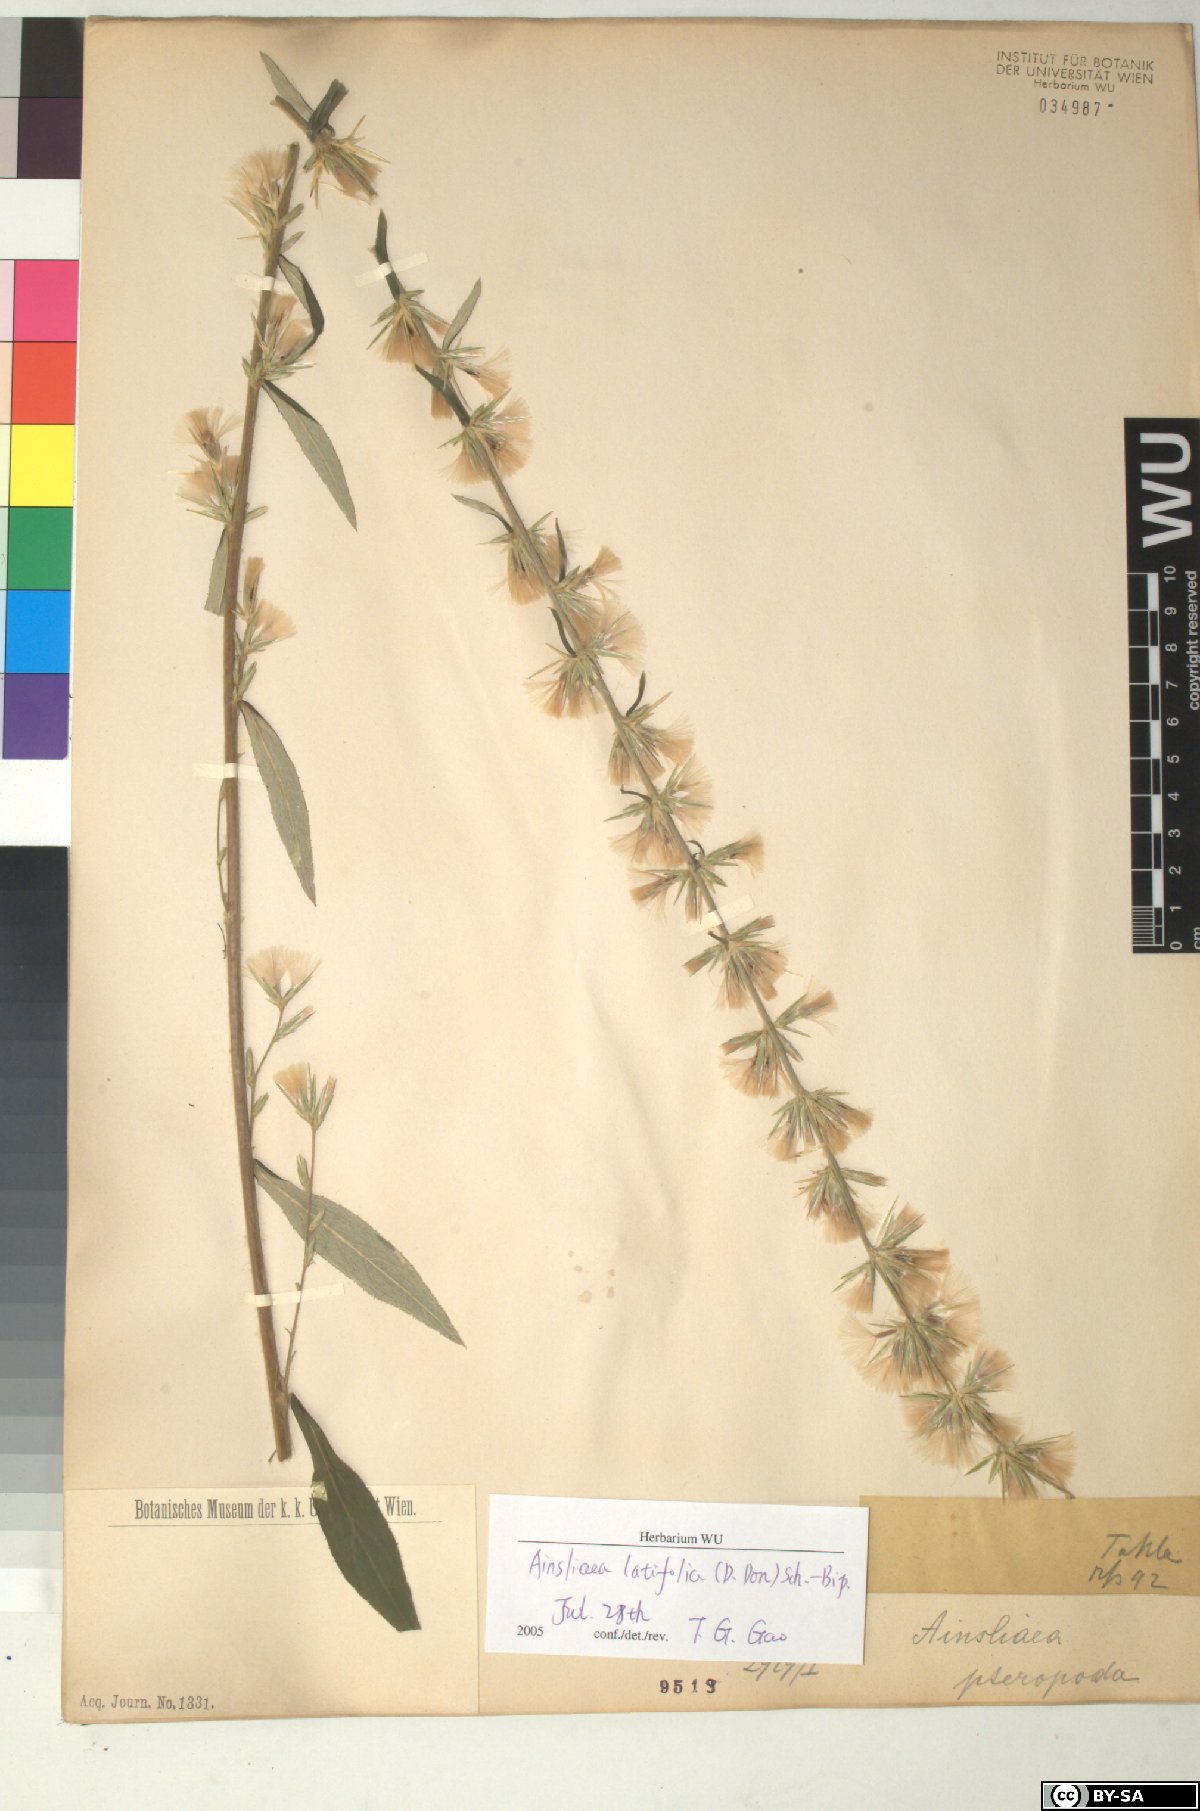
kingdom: Plantae
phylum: Tracheophyta
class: Magnoliopsida
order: Asterales
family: Asteraceae
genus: Ainsliaea
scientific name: Ainsliaea latifolia
